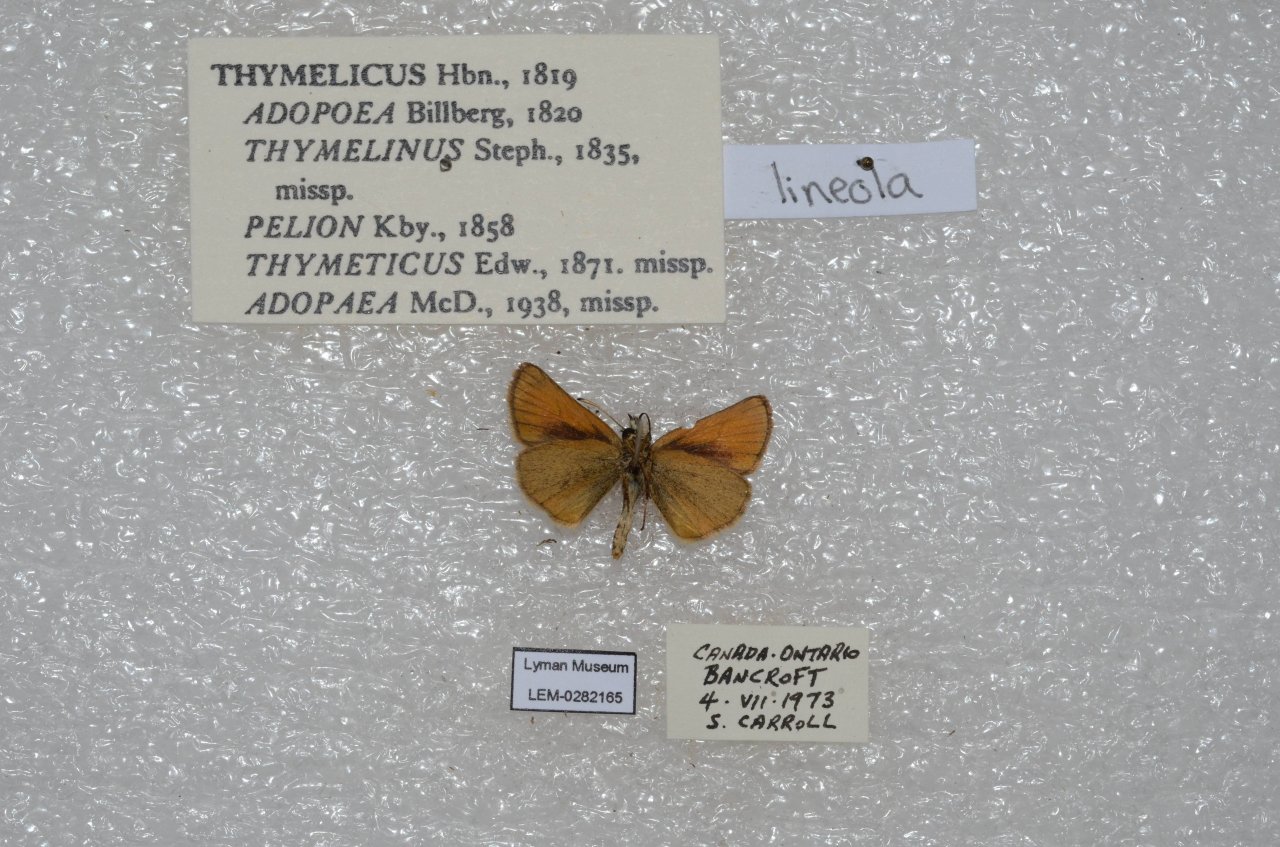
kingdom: Animalia
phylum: Arthropoda
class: Insecta
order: Lepidoptera
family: Hesperiidae
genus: Thymelicus
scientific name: Thymelicus lineola
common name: European Skipper
